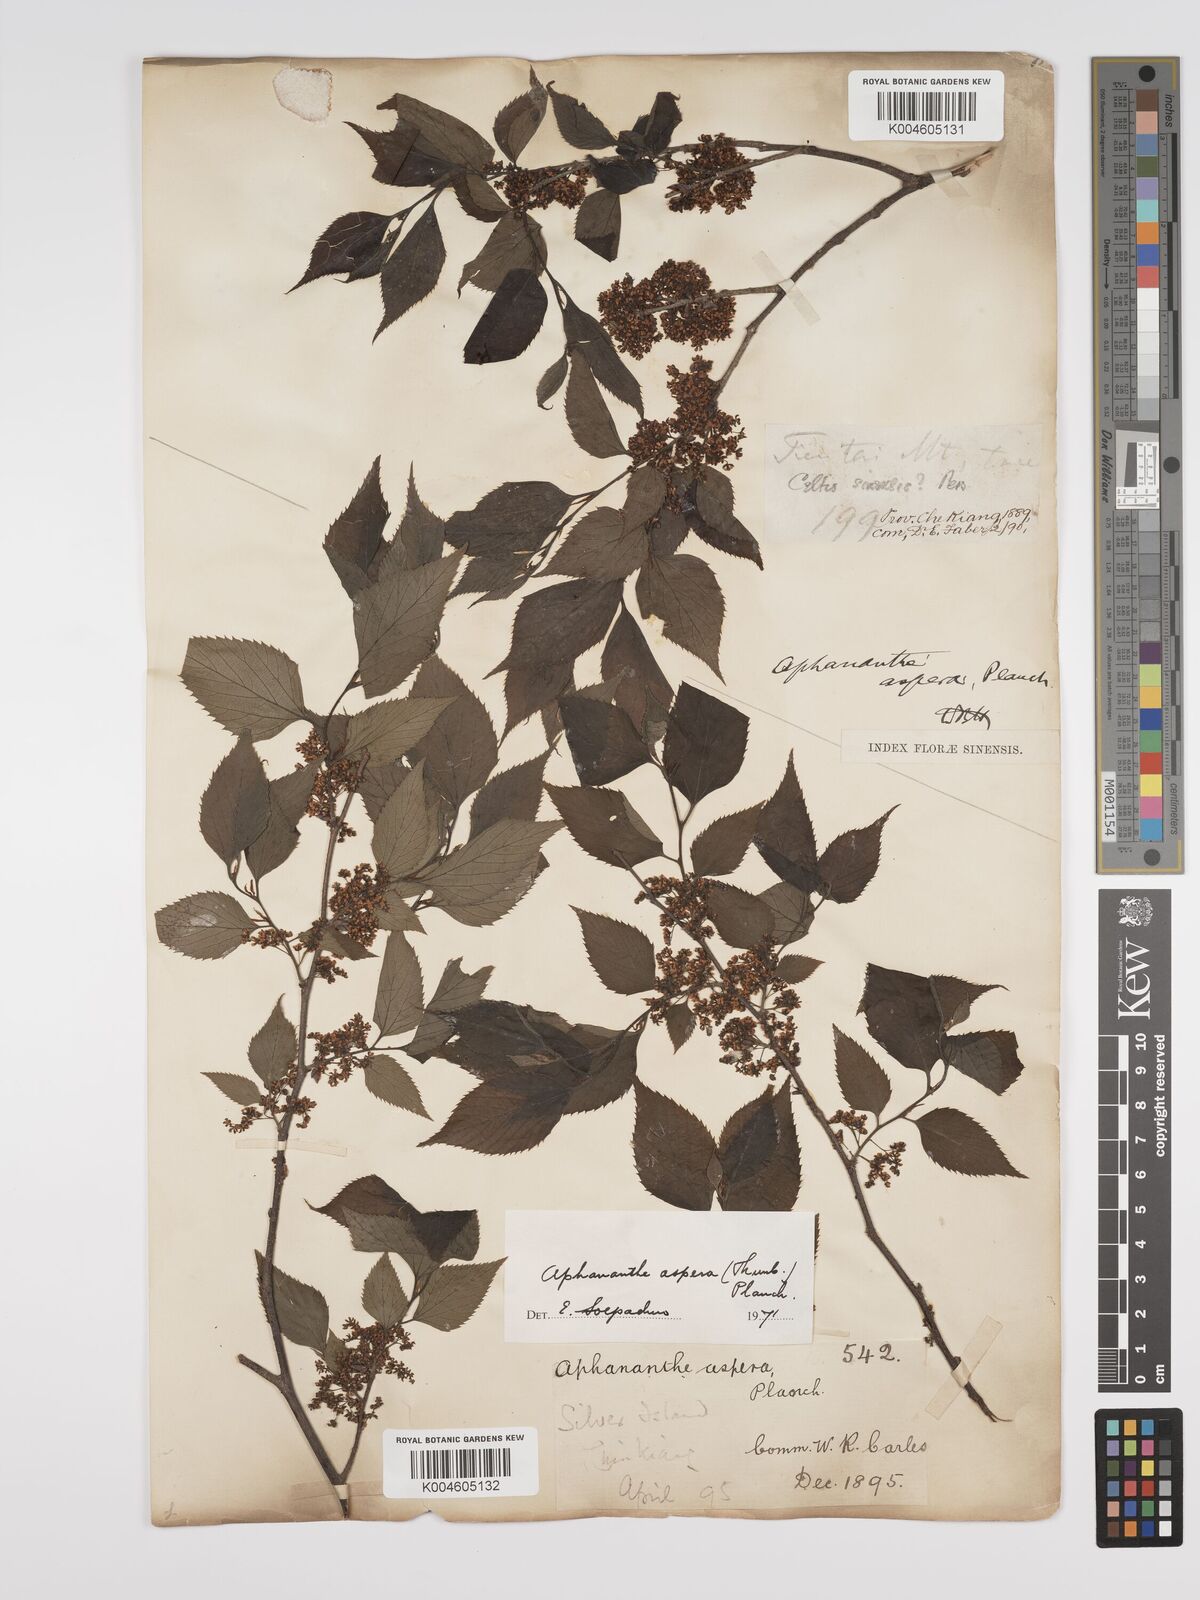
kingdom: Plantae
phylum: Tracheophyta
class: Magnoliopsida
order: Rosales
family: Cannabaceae
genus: Aphananthe
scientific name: Aphananthe aspera
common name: Mukutree
